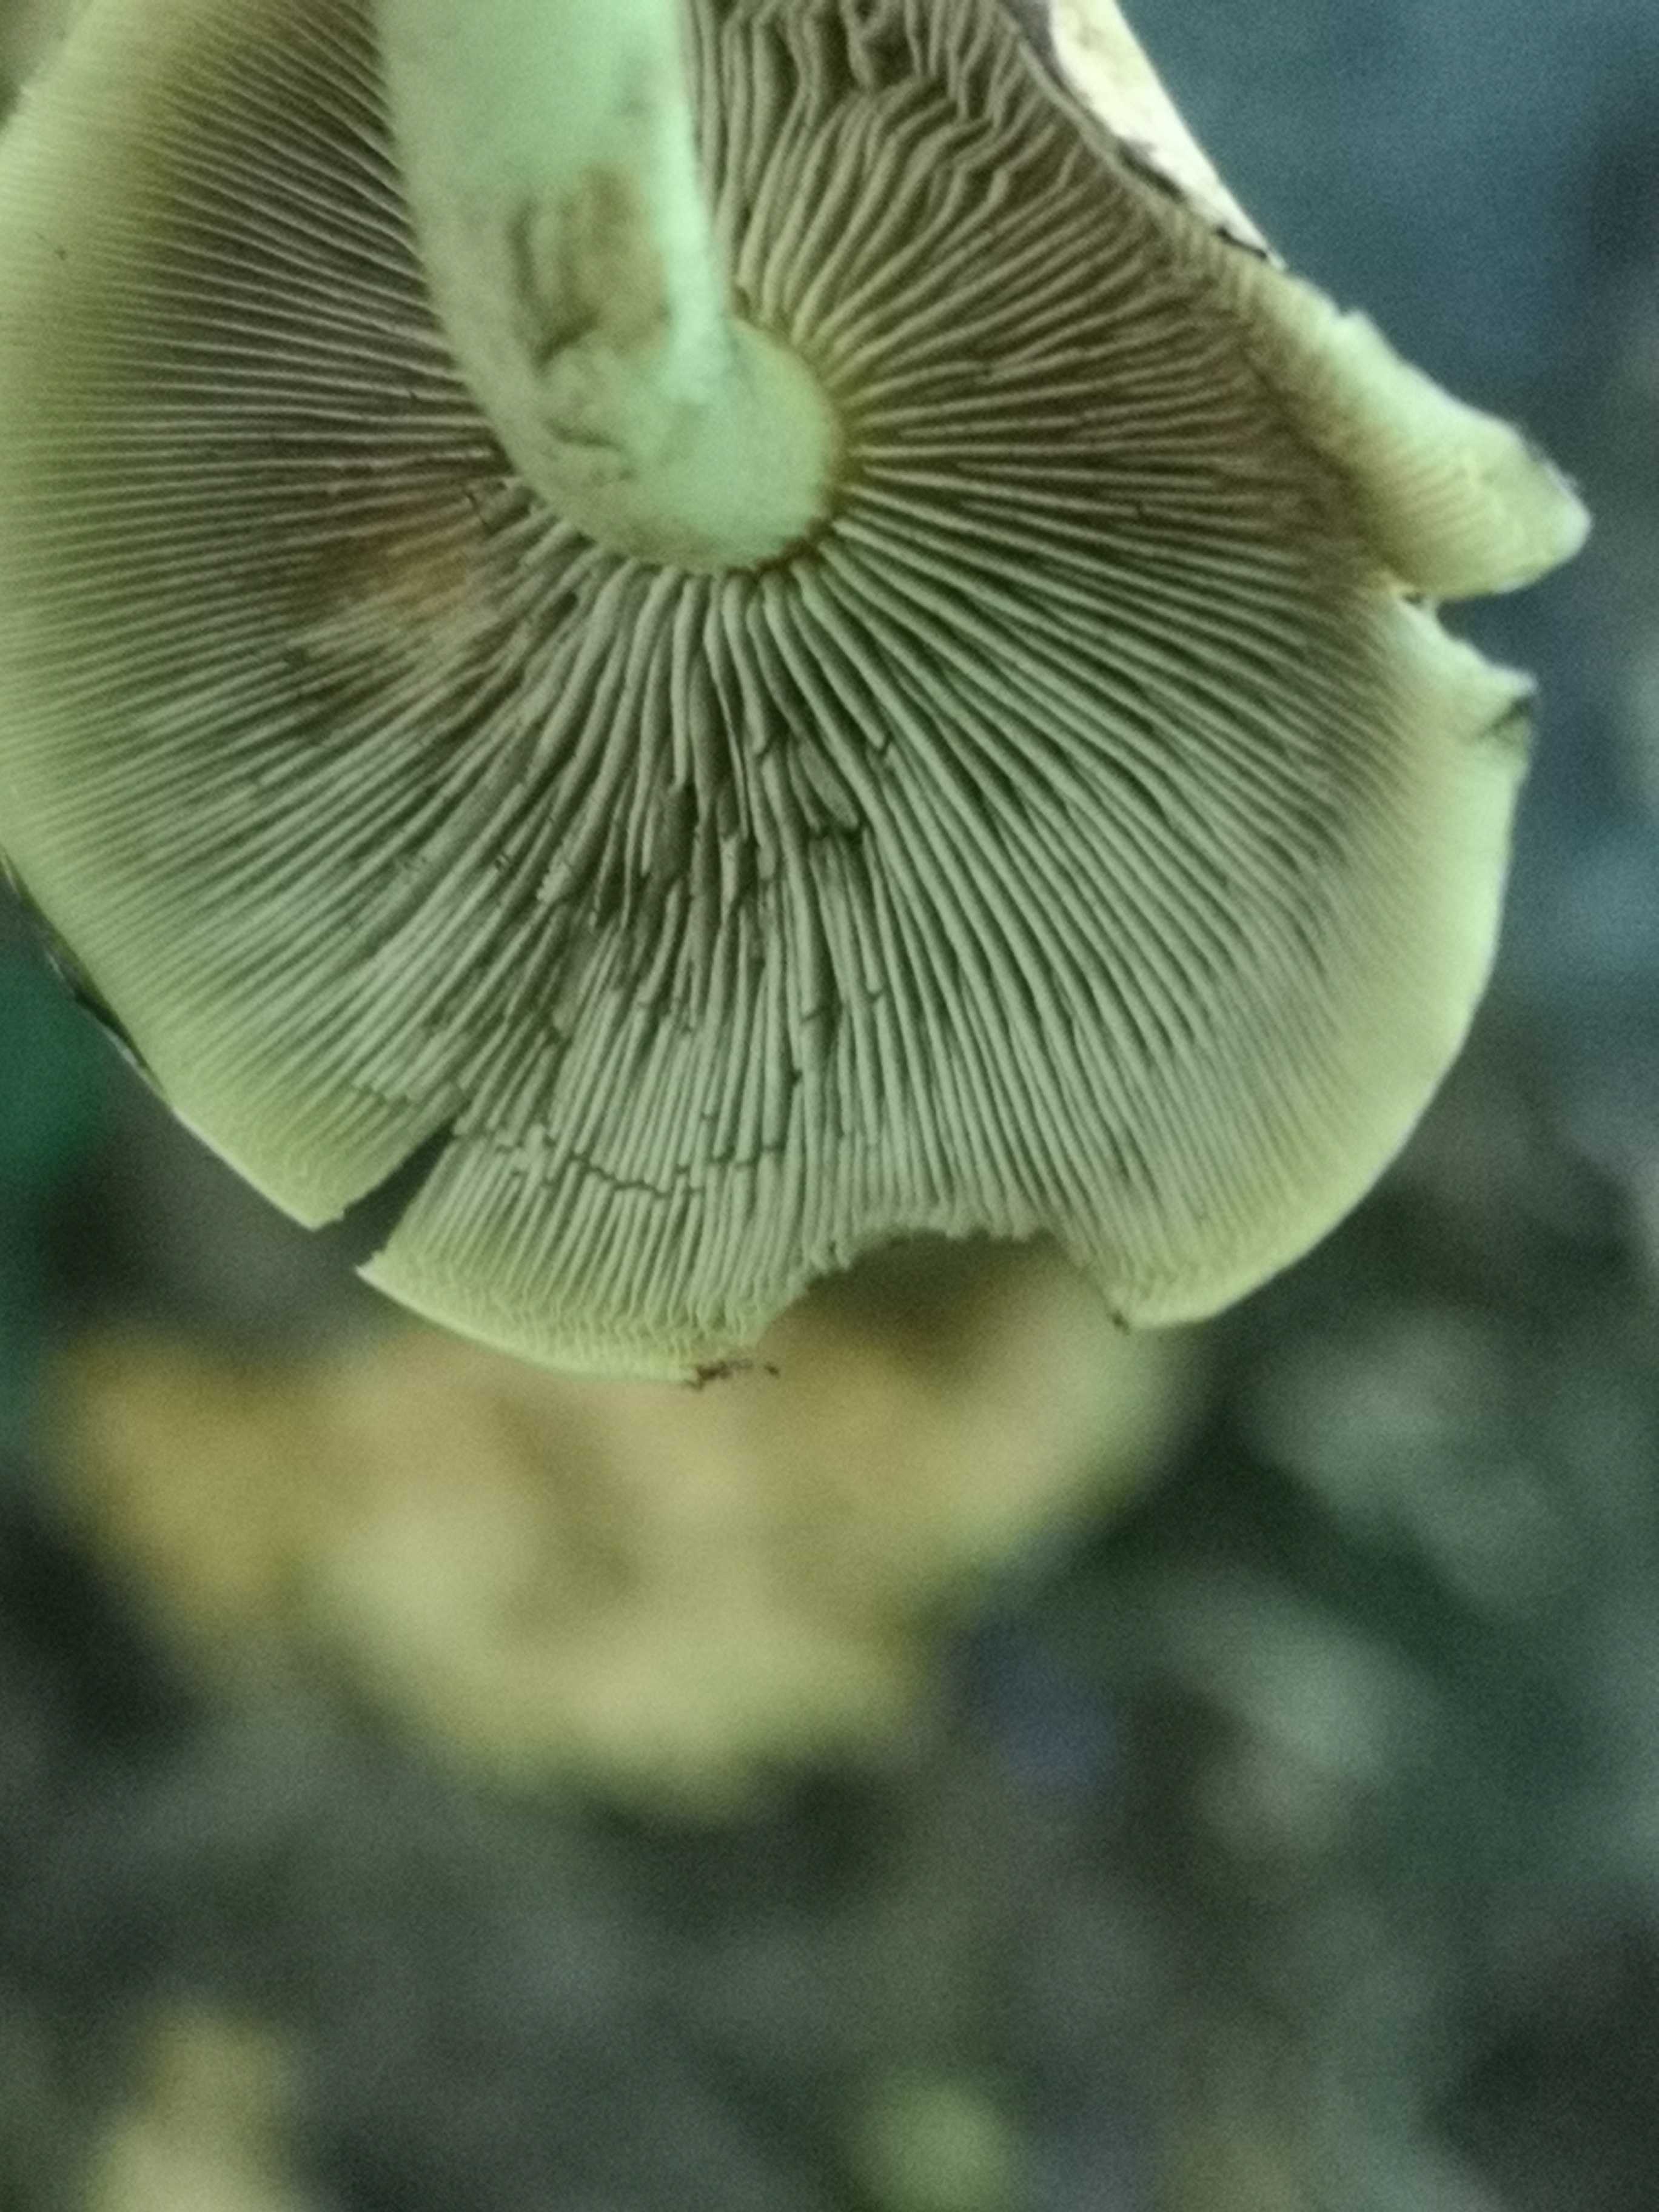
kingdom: Fungi
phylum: Basidiomycota
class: Agaricomycetes
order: Agaricales
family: Strophariaceae
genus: Hypholoma
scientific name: Hypholoma fasciculare
